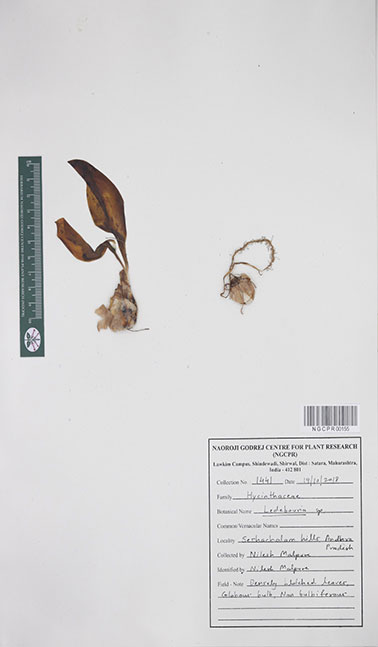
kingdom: Plantae
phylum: Tracheophyta
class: Liliopsida
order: Asparagales
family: Asparagaceae
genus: Ledebouria
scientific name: Ledebouria
